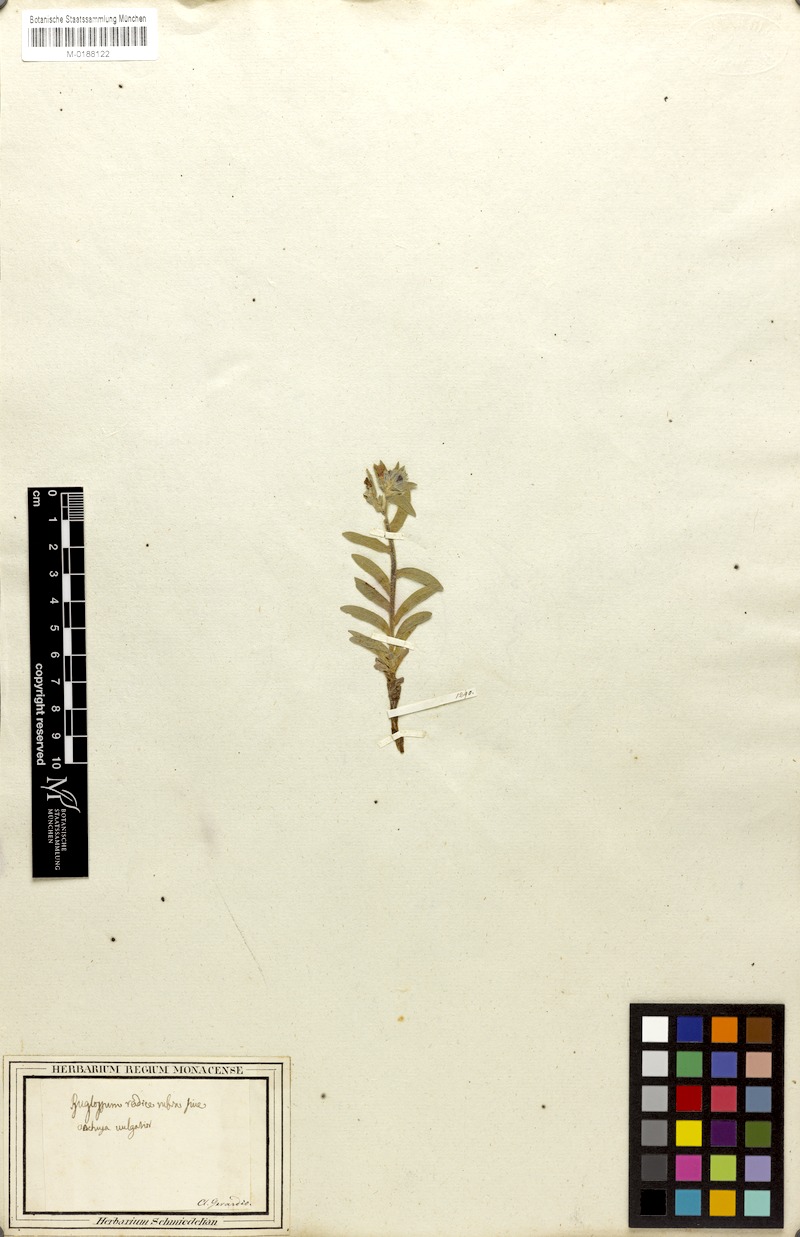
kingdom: Plantae
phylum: Tracheophyta
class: Magnoliopsida
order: Boraginales
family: Boraginaceae
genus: Alkanna
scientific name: Alkanna tinctoria
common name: Dyer's-alkanet
